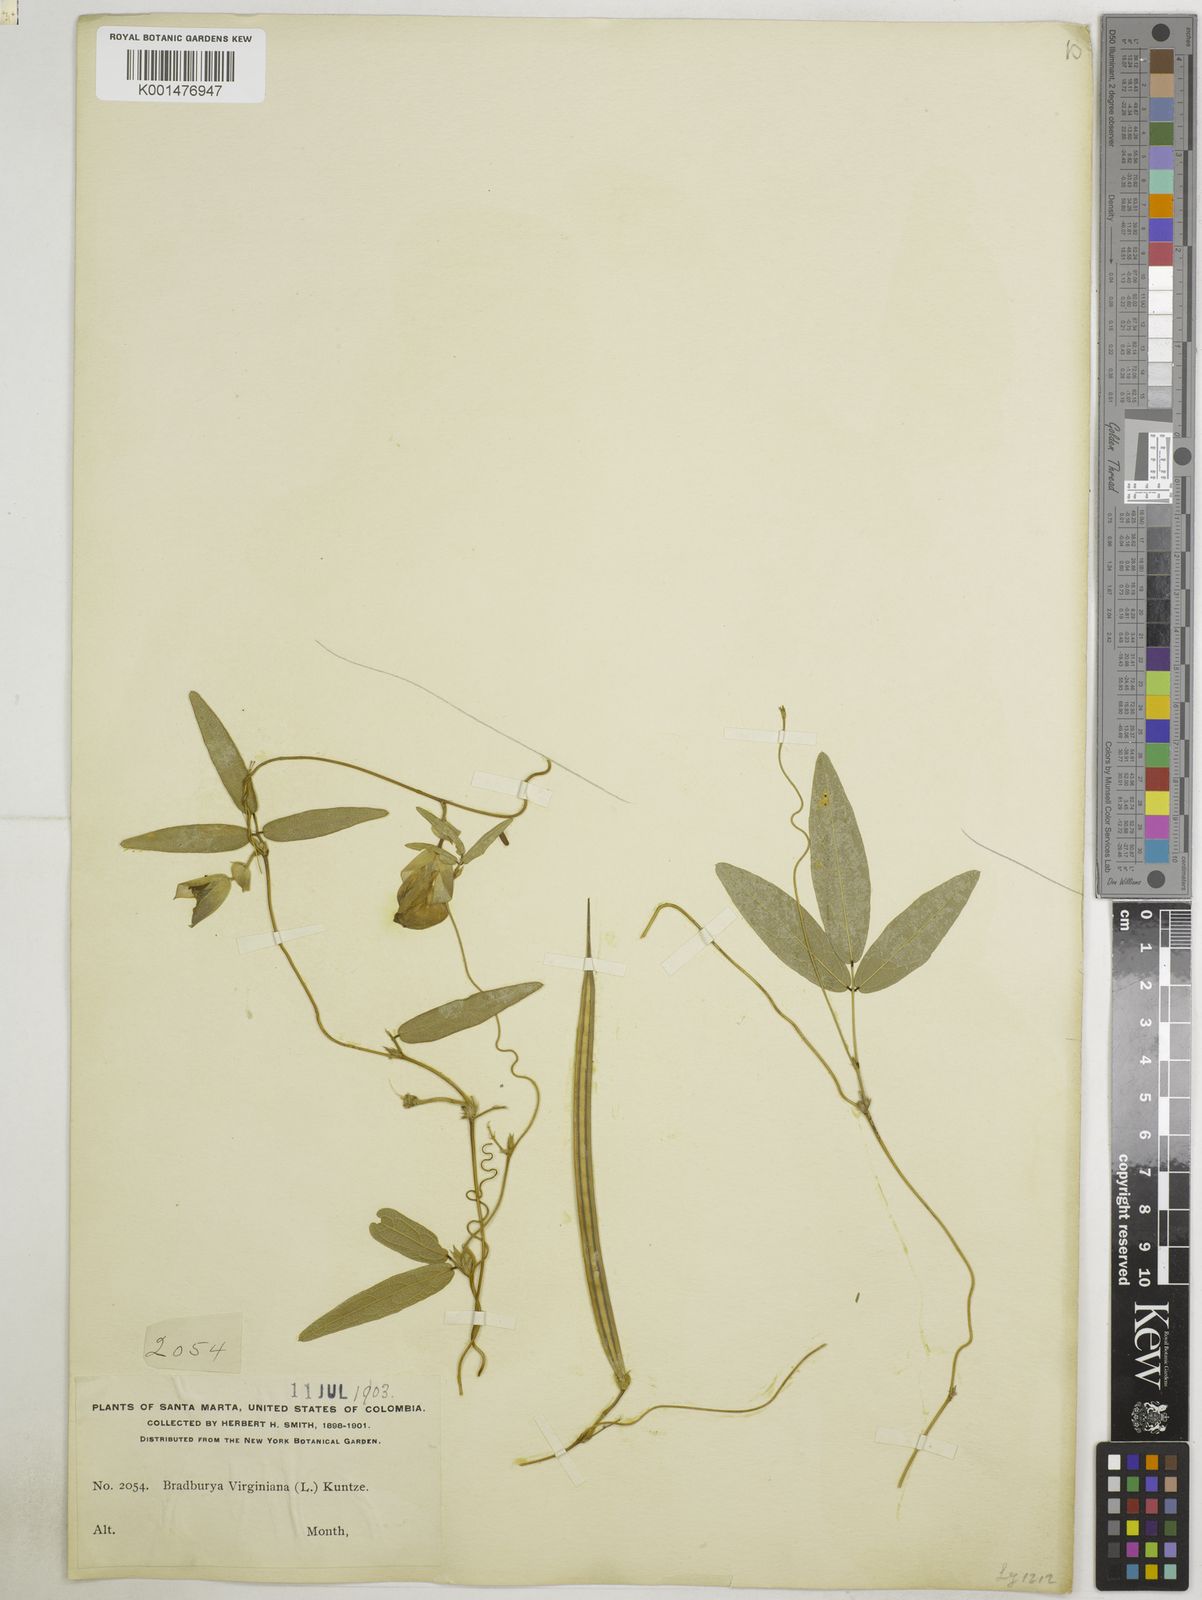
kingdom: Plantae
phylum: Tracheophyta
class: Magnoliopsida
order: Fabales
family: Fabaceae
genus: Centrosema
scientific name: Centrosema brasilianum
